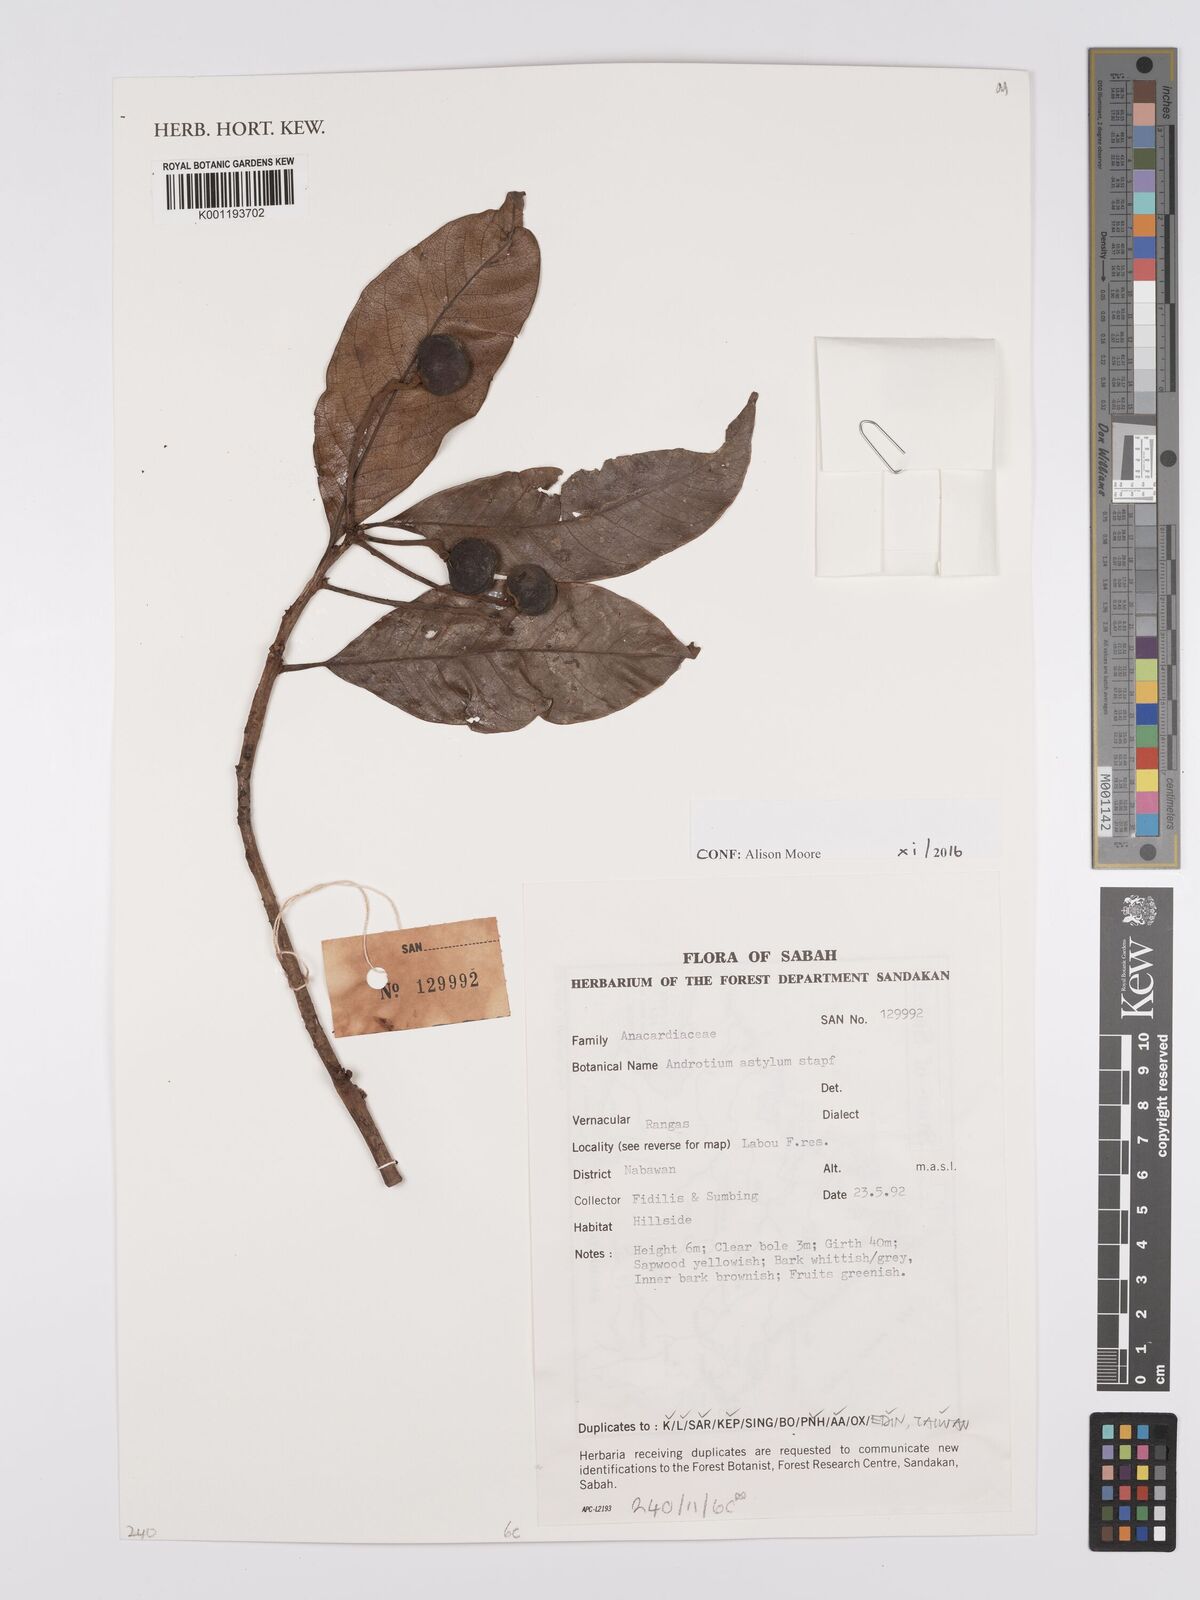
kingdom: Plantae
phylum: Tracheophyta
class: Magnoliopsida
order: Sapindales
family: Anacardiaceae
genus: Androtium
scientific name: Androtium astylum
